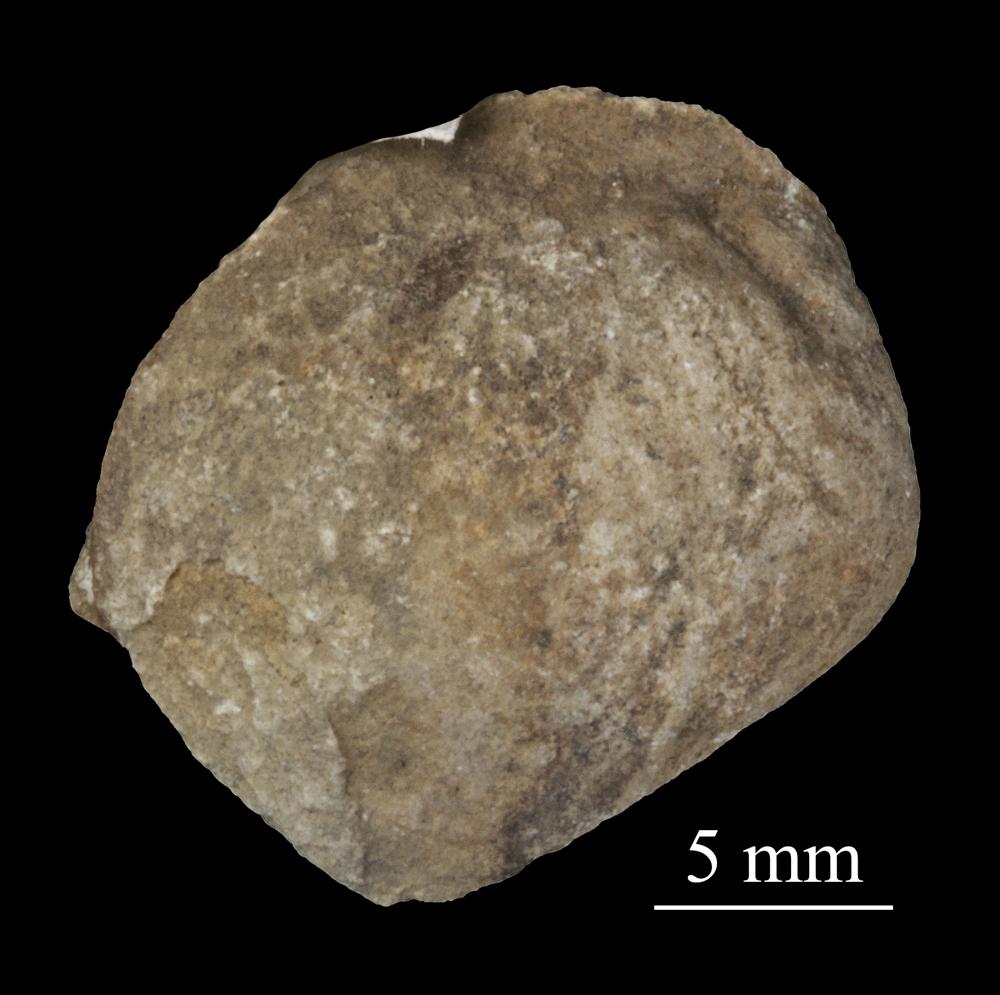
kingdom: Animalia
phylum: Mollusca
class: Bivalvia
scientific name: Bivalvia
